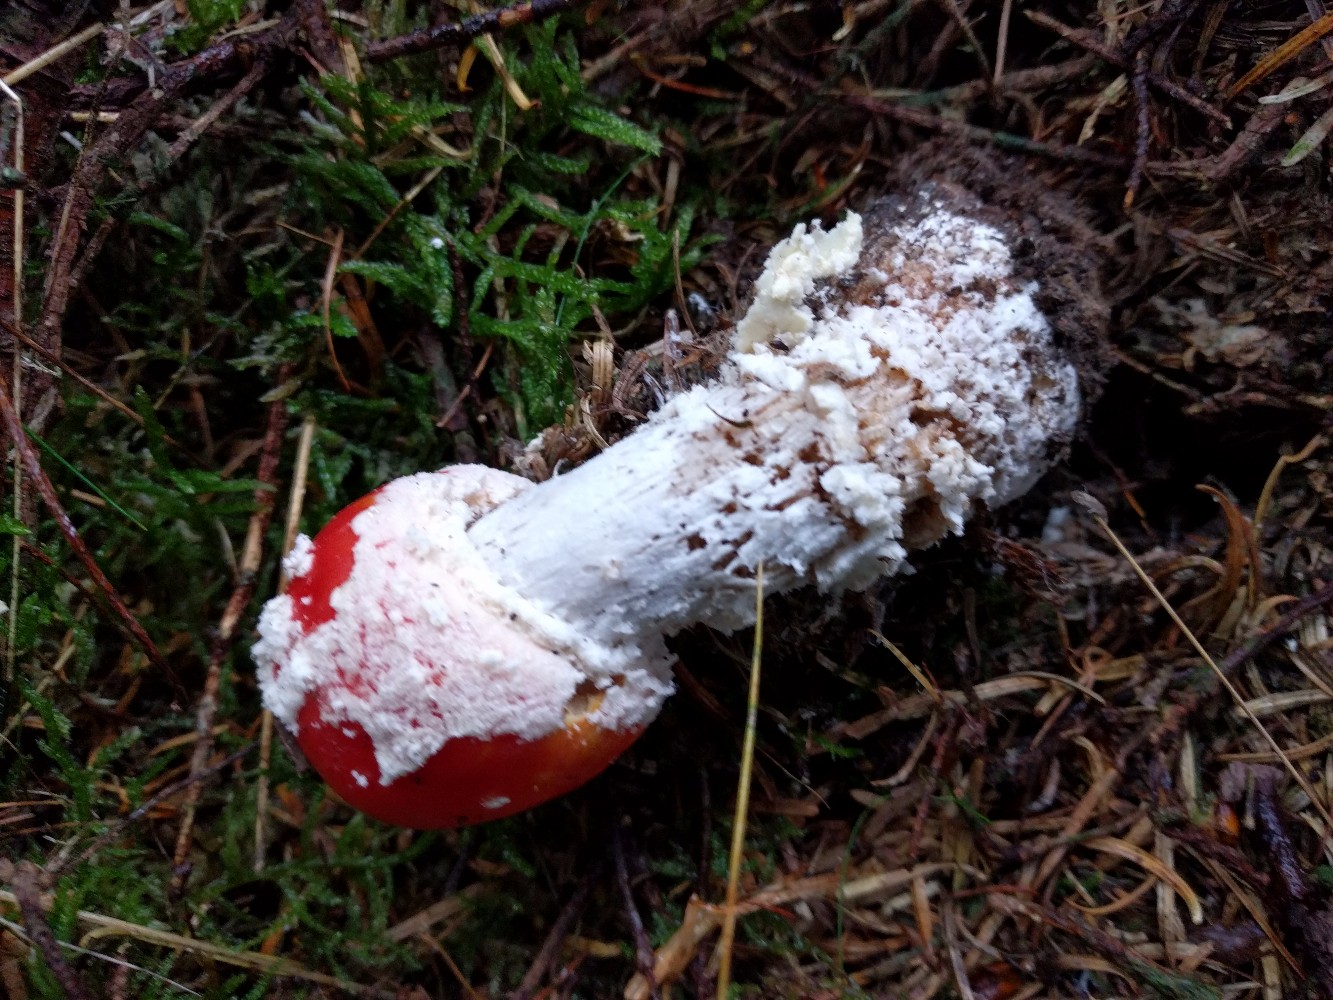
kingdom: Fungi
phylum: Basidiomycota
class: Agaricomycetes
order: Agaricales
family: Amanitaceae
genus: Amanita
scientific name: Amanita muscaria
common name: rød fluesvamp
